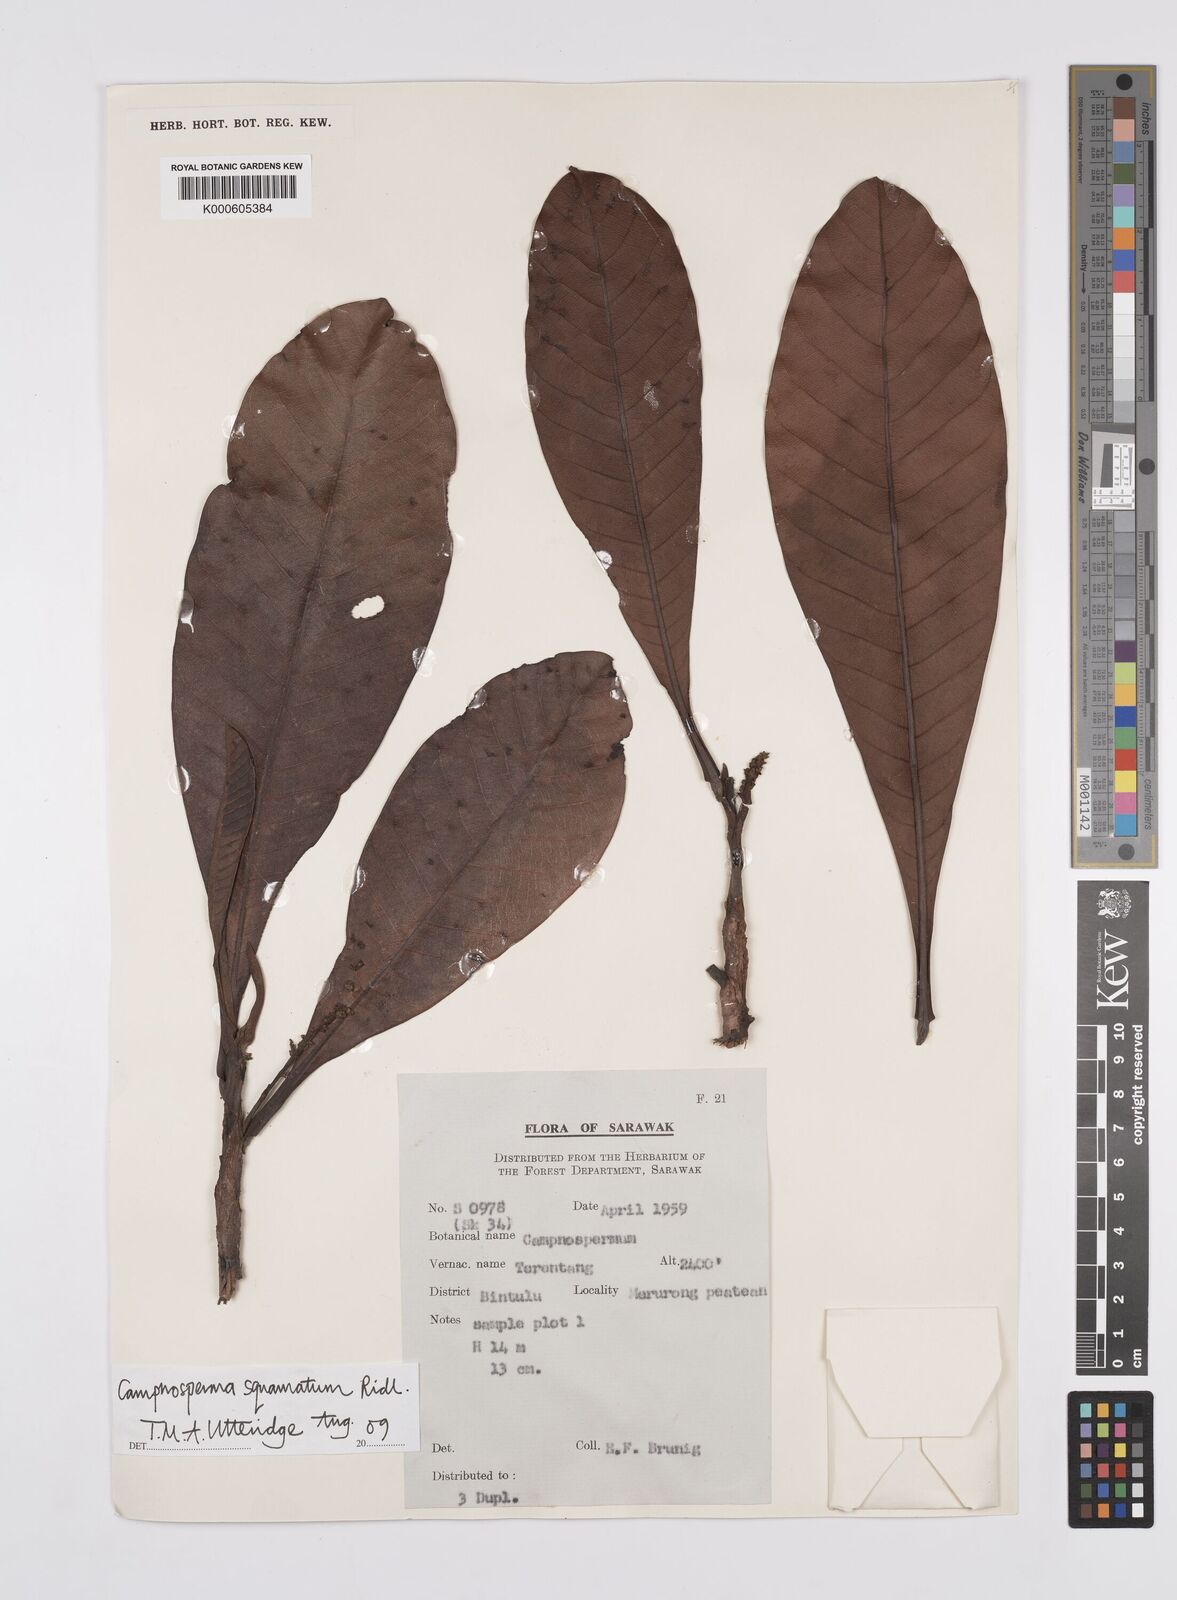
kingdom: Plantae
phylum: Tracheophyta
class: Magnoliopsida
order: Sapindales
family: Anacardiaceae
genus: Campnosperma
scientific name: Campnosperma
